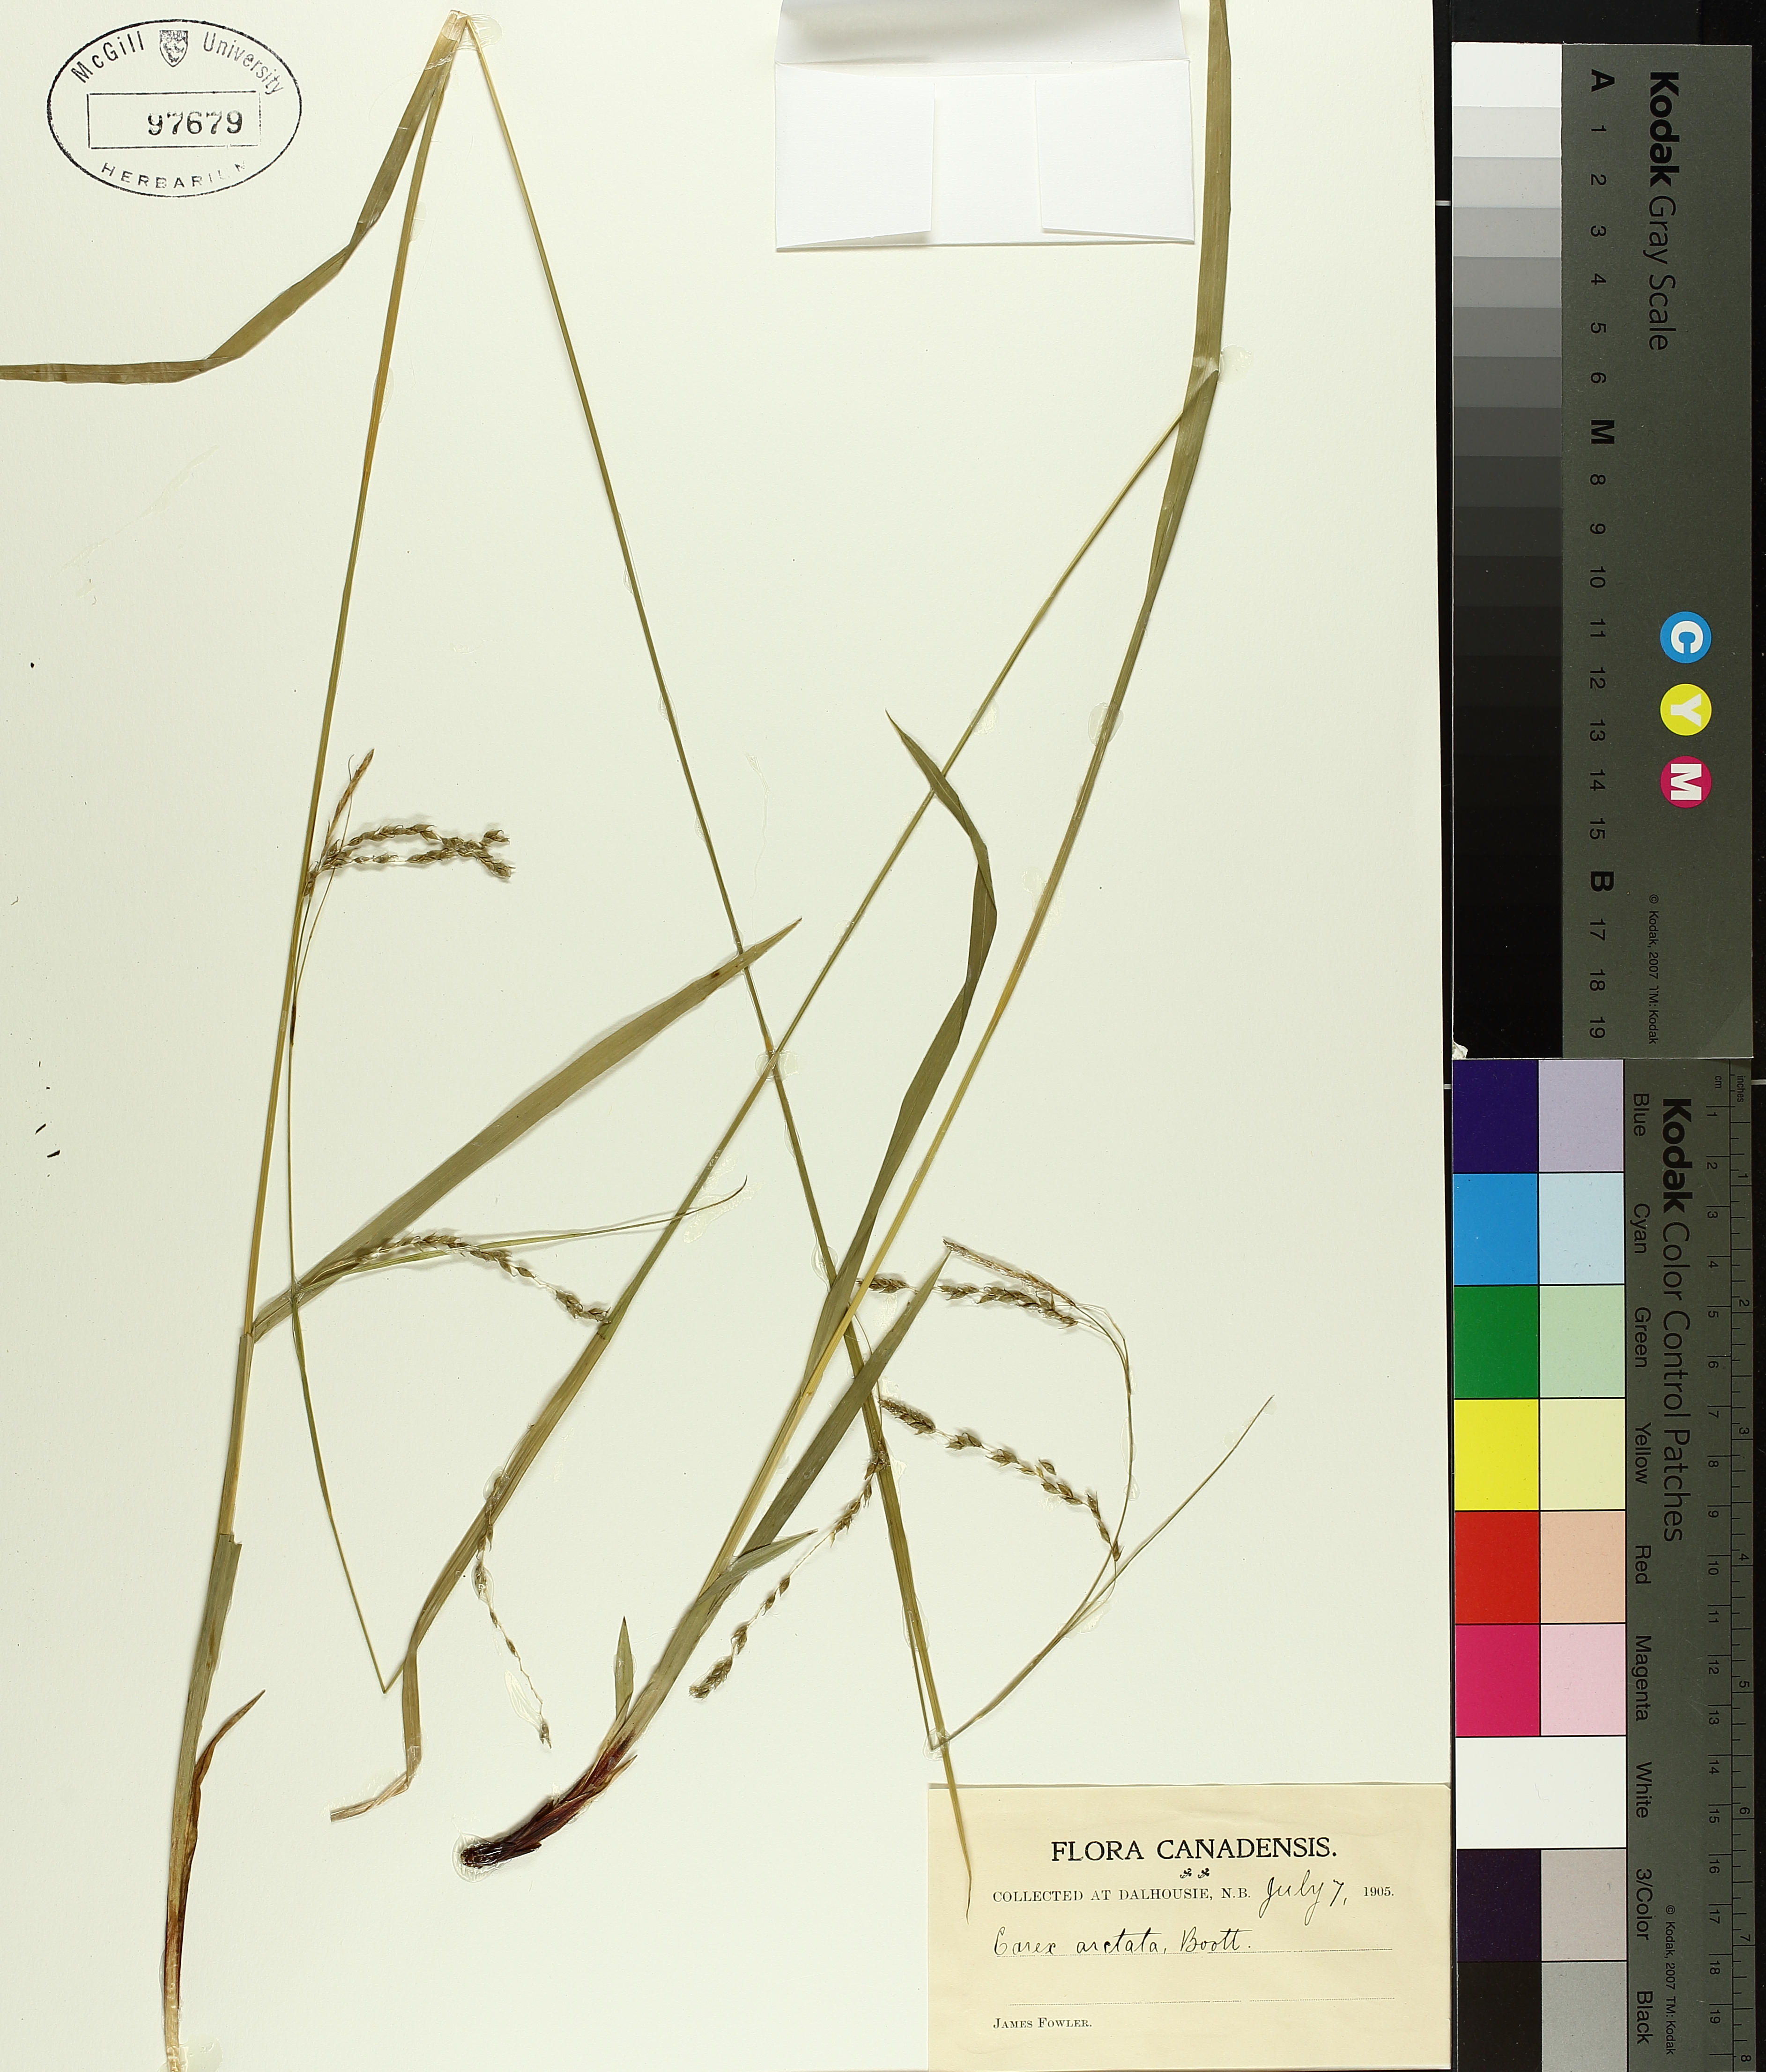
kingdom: Plantae
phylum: Tracheophyta
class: Liliopsida
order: Poales
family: Cyperaceae
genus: Carex
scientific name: Carex arctata
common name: Black sedge
